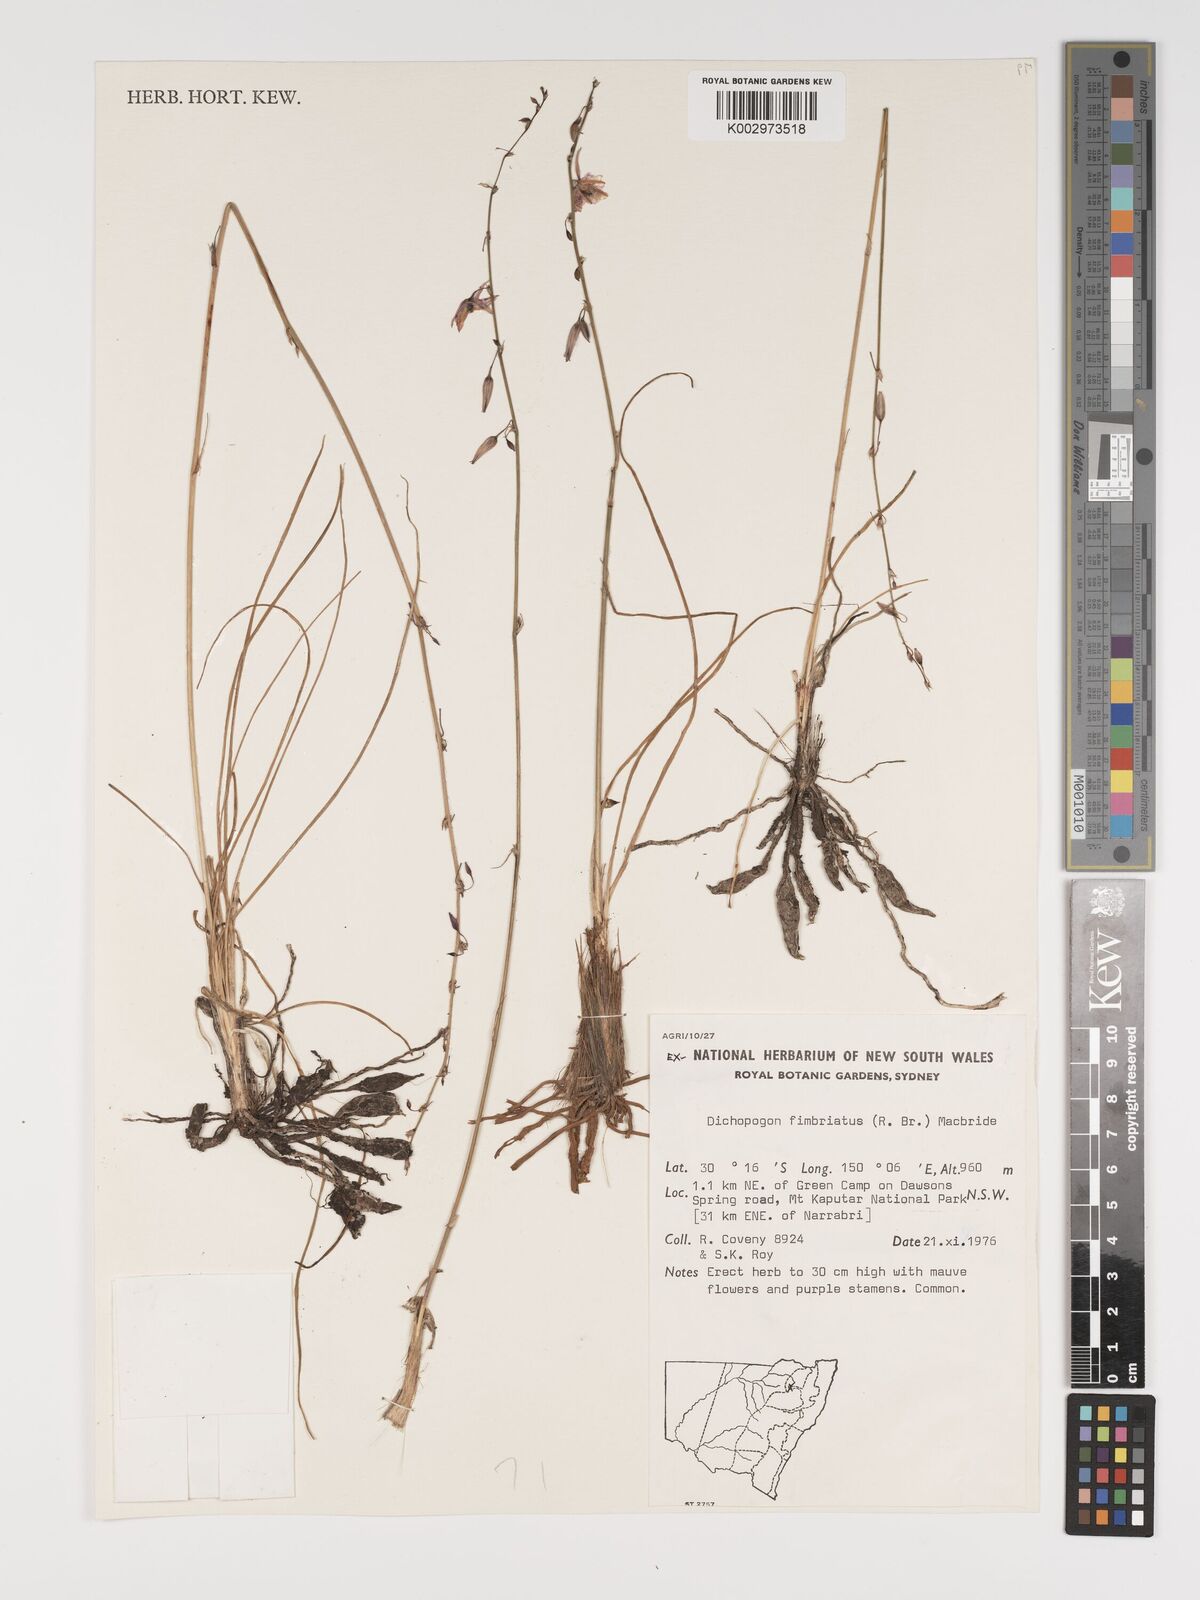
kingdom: Plantae
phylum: Tracheophyta
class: Liliopsida
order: Asparagales
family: Asparagaceae
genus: Dichopogon
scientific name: Dichopogon fimbriatus
